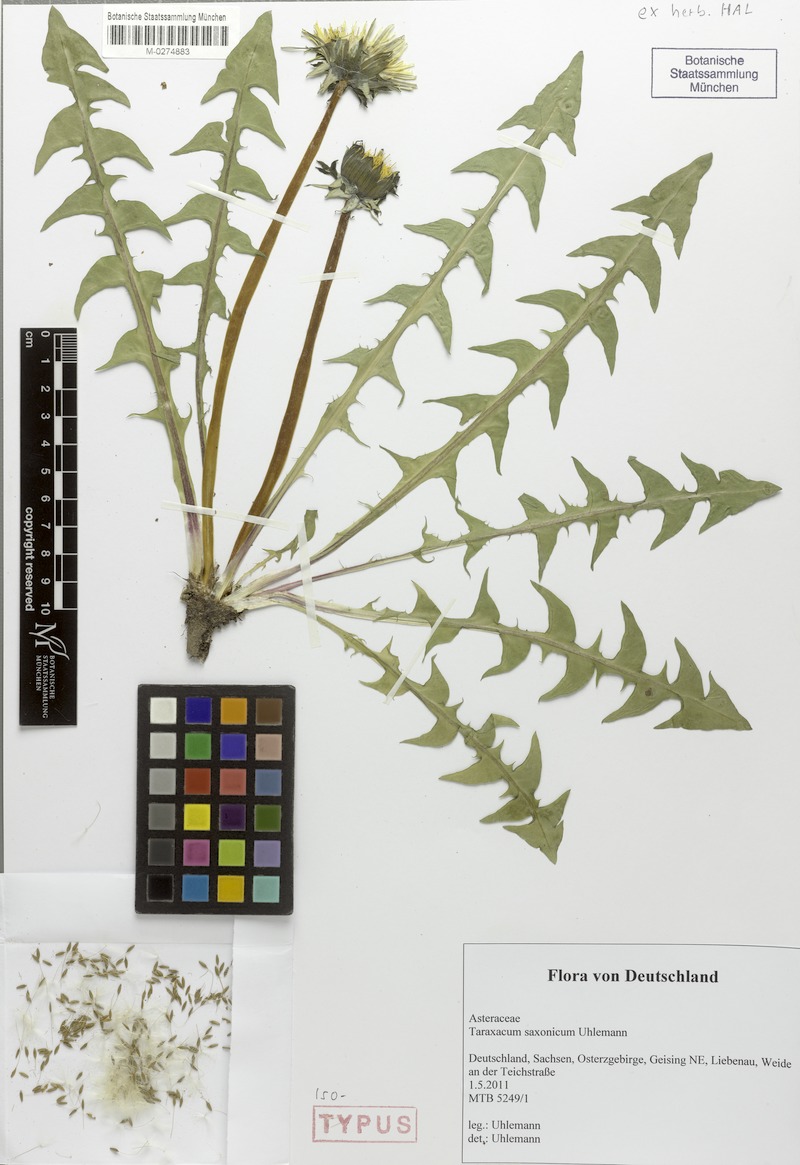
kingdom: Plantae
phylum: Tracheophyta
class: Magnoliopsida
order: Asterales
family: Asteraceae
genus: Taraxacum
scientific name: Taraxacum saxonicum
